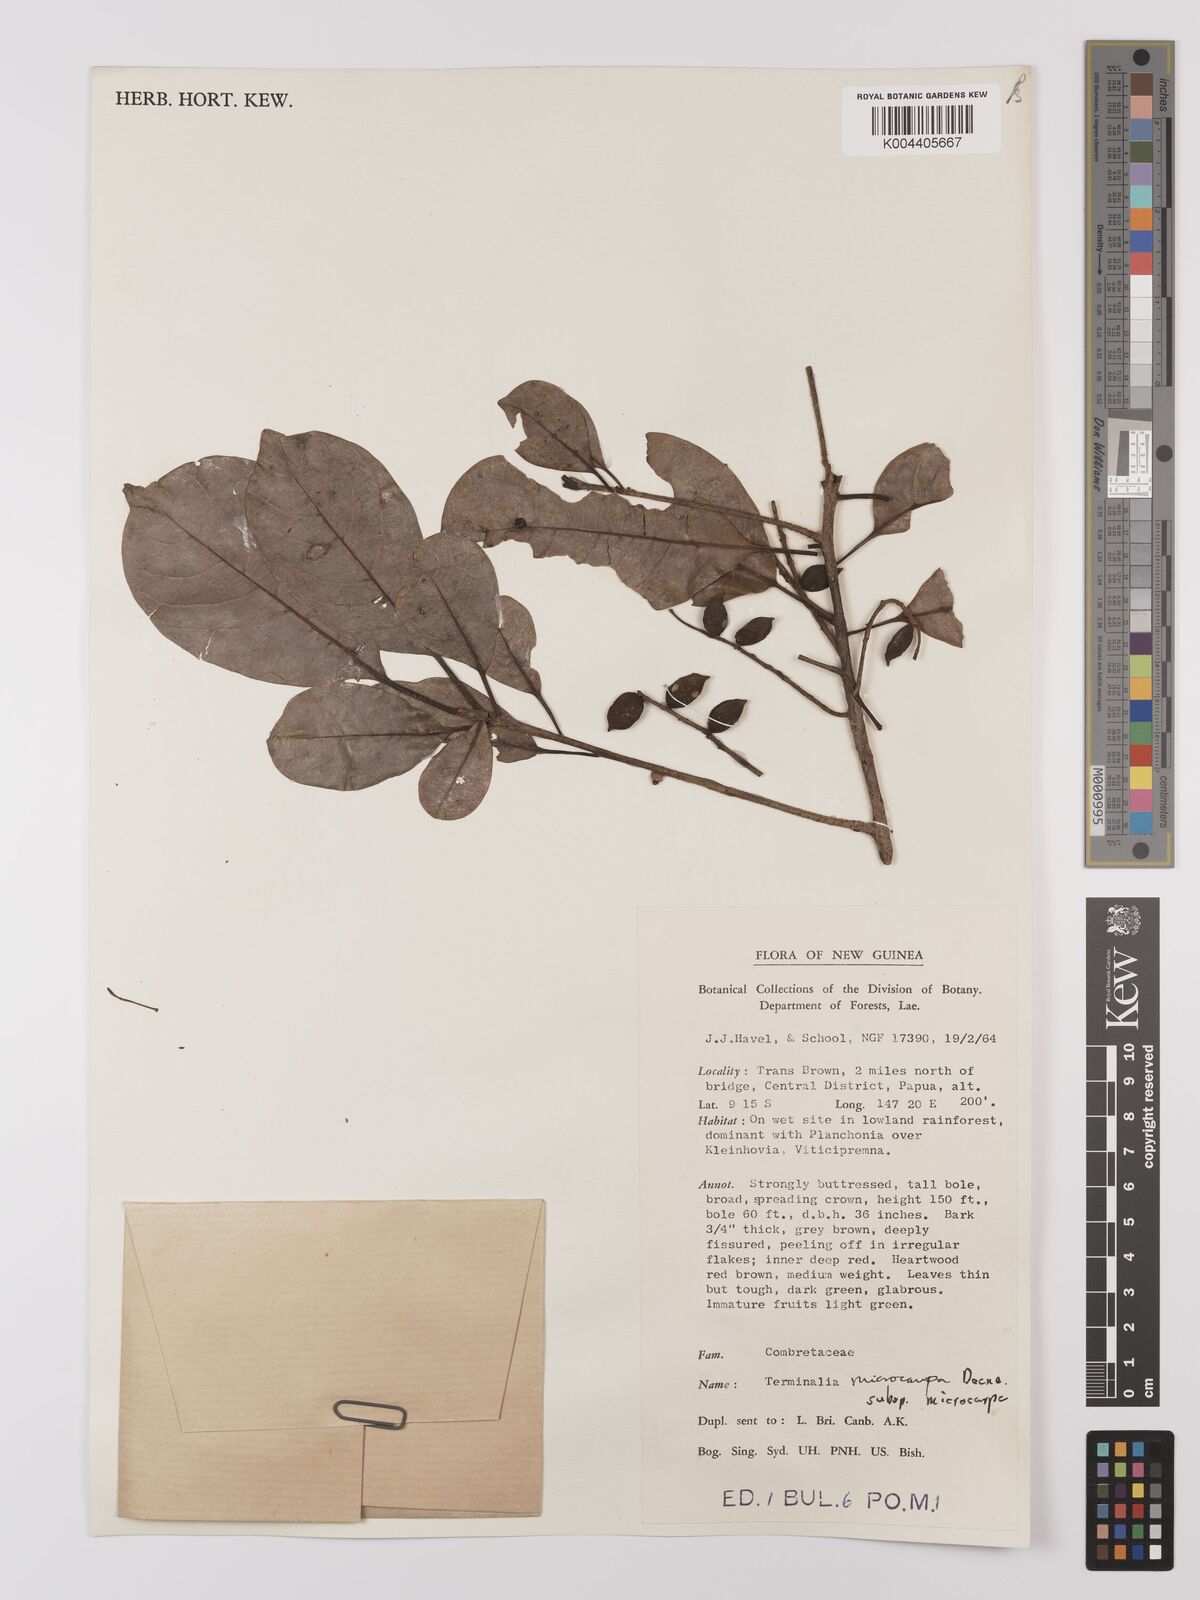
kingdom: Plantae
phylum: Tracheophyta
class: Magnoliopsida
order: Myrtales
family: Combretaceae
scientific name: Combretaceae
